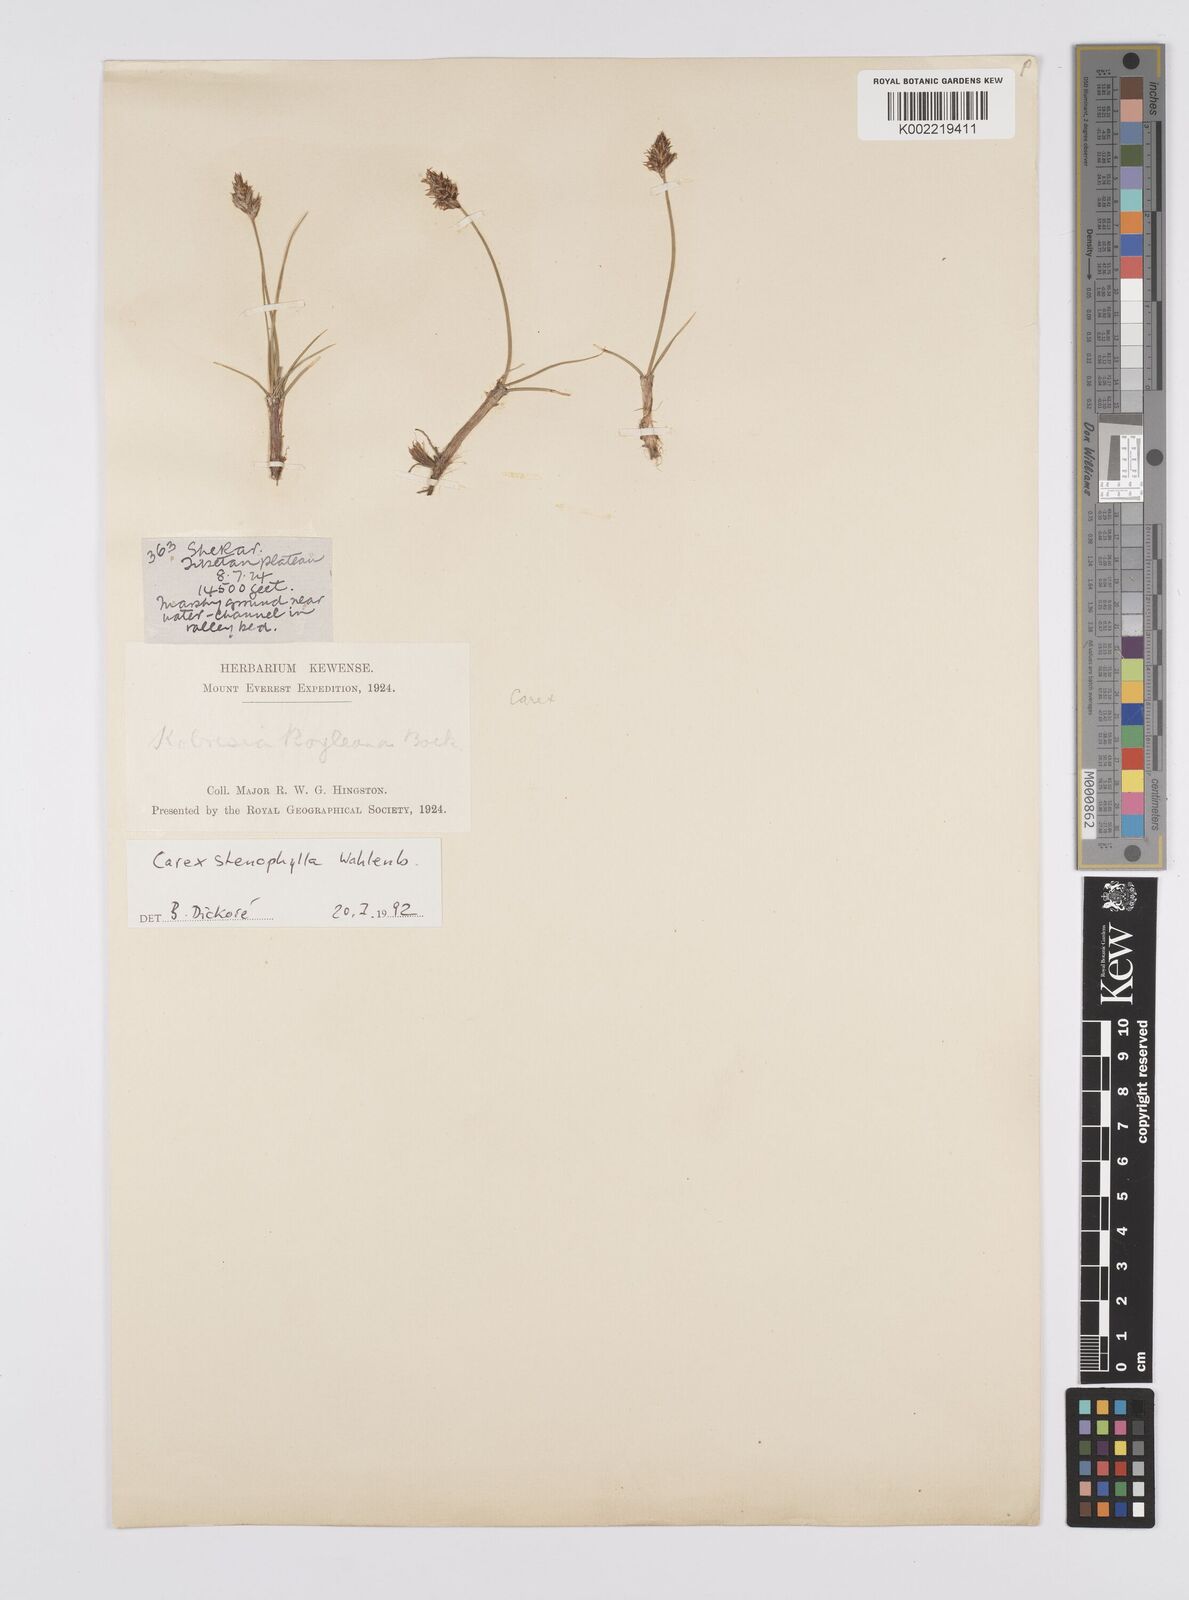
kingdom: Plantae
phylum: Tracheophyta
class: Liliopsida
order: Poales
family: Cyperaceae
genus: Carex
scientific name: Carex stenophylla
